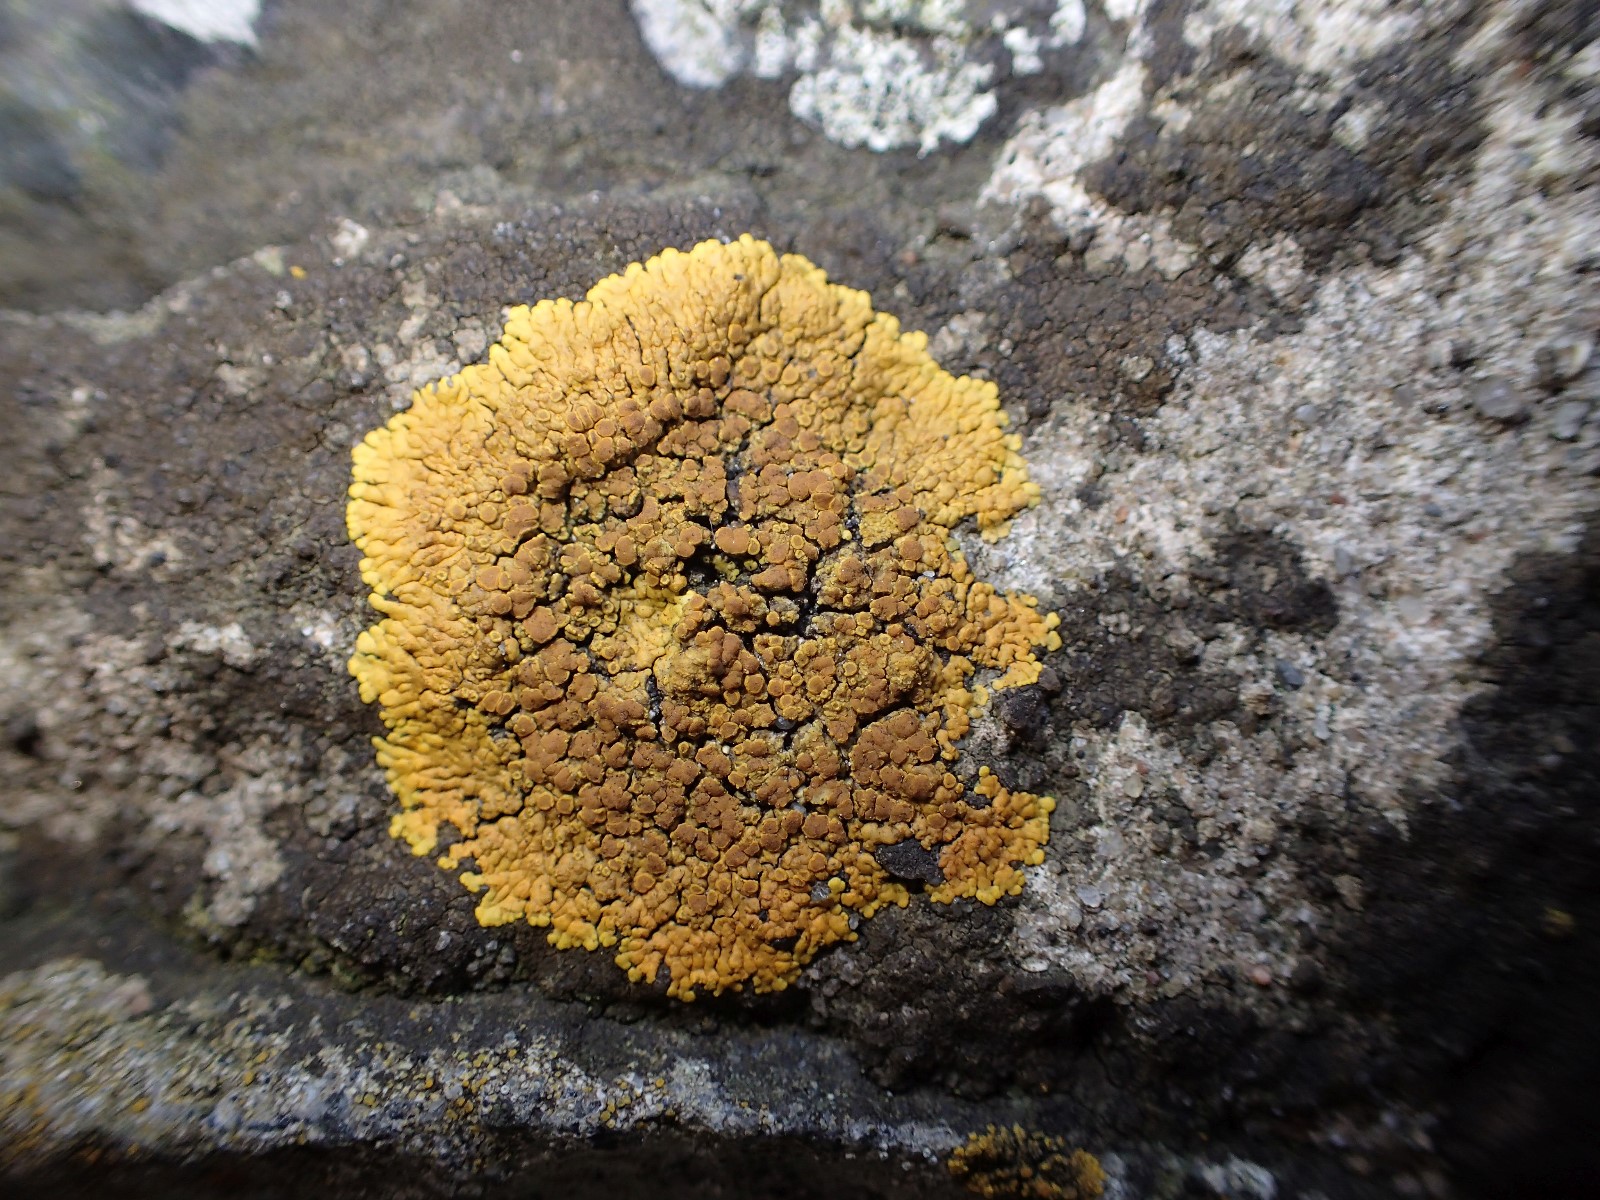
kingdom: Fungi
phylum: Ascomycota
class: Lecanoromycetes
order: Teloschistales
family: Teloschistaceae
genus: Variospora
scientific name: Variospora flavescens
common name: kalk-orangelav
